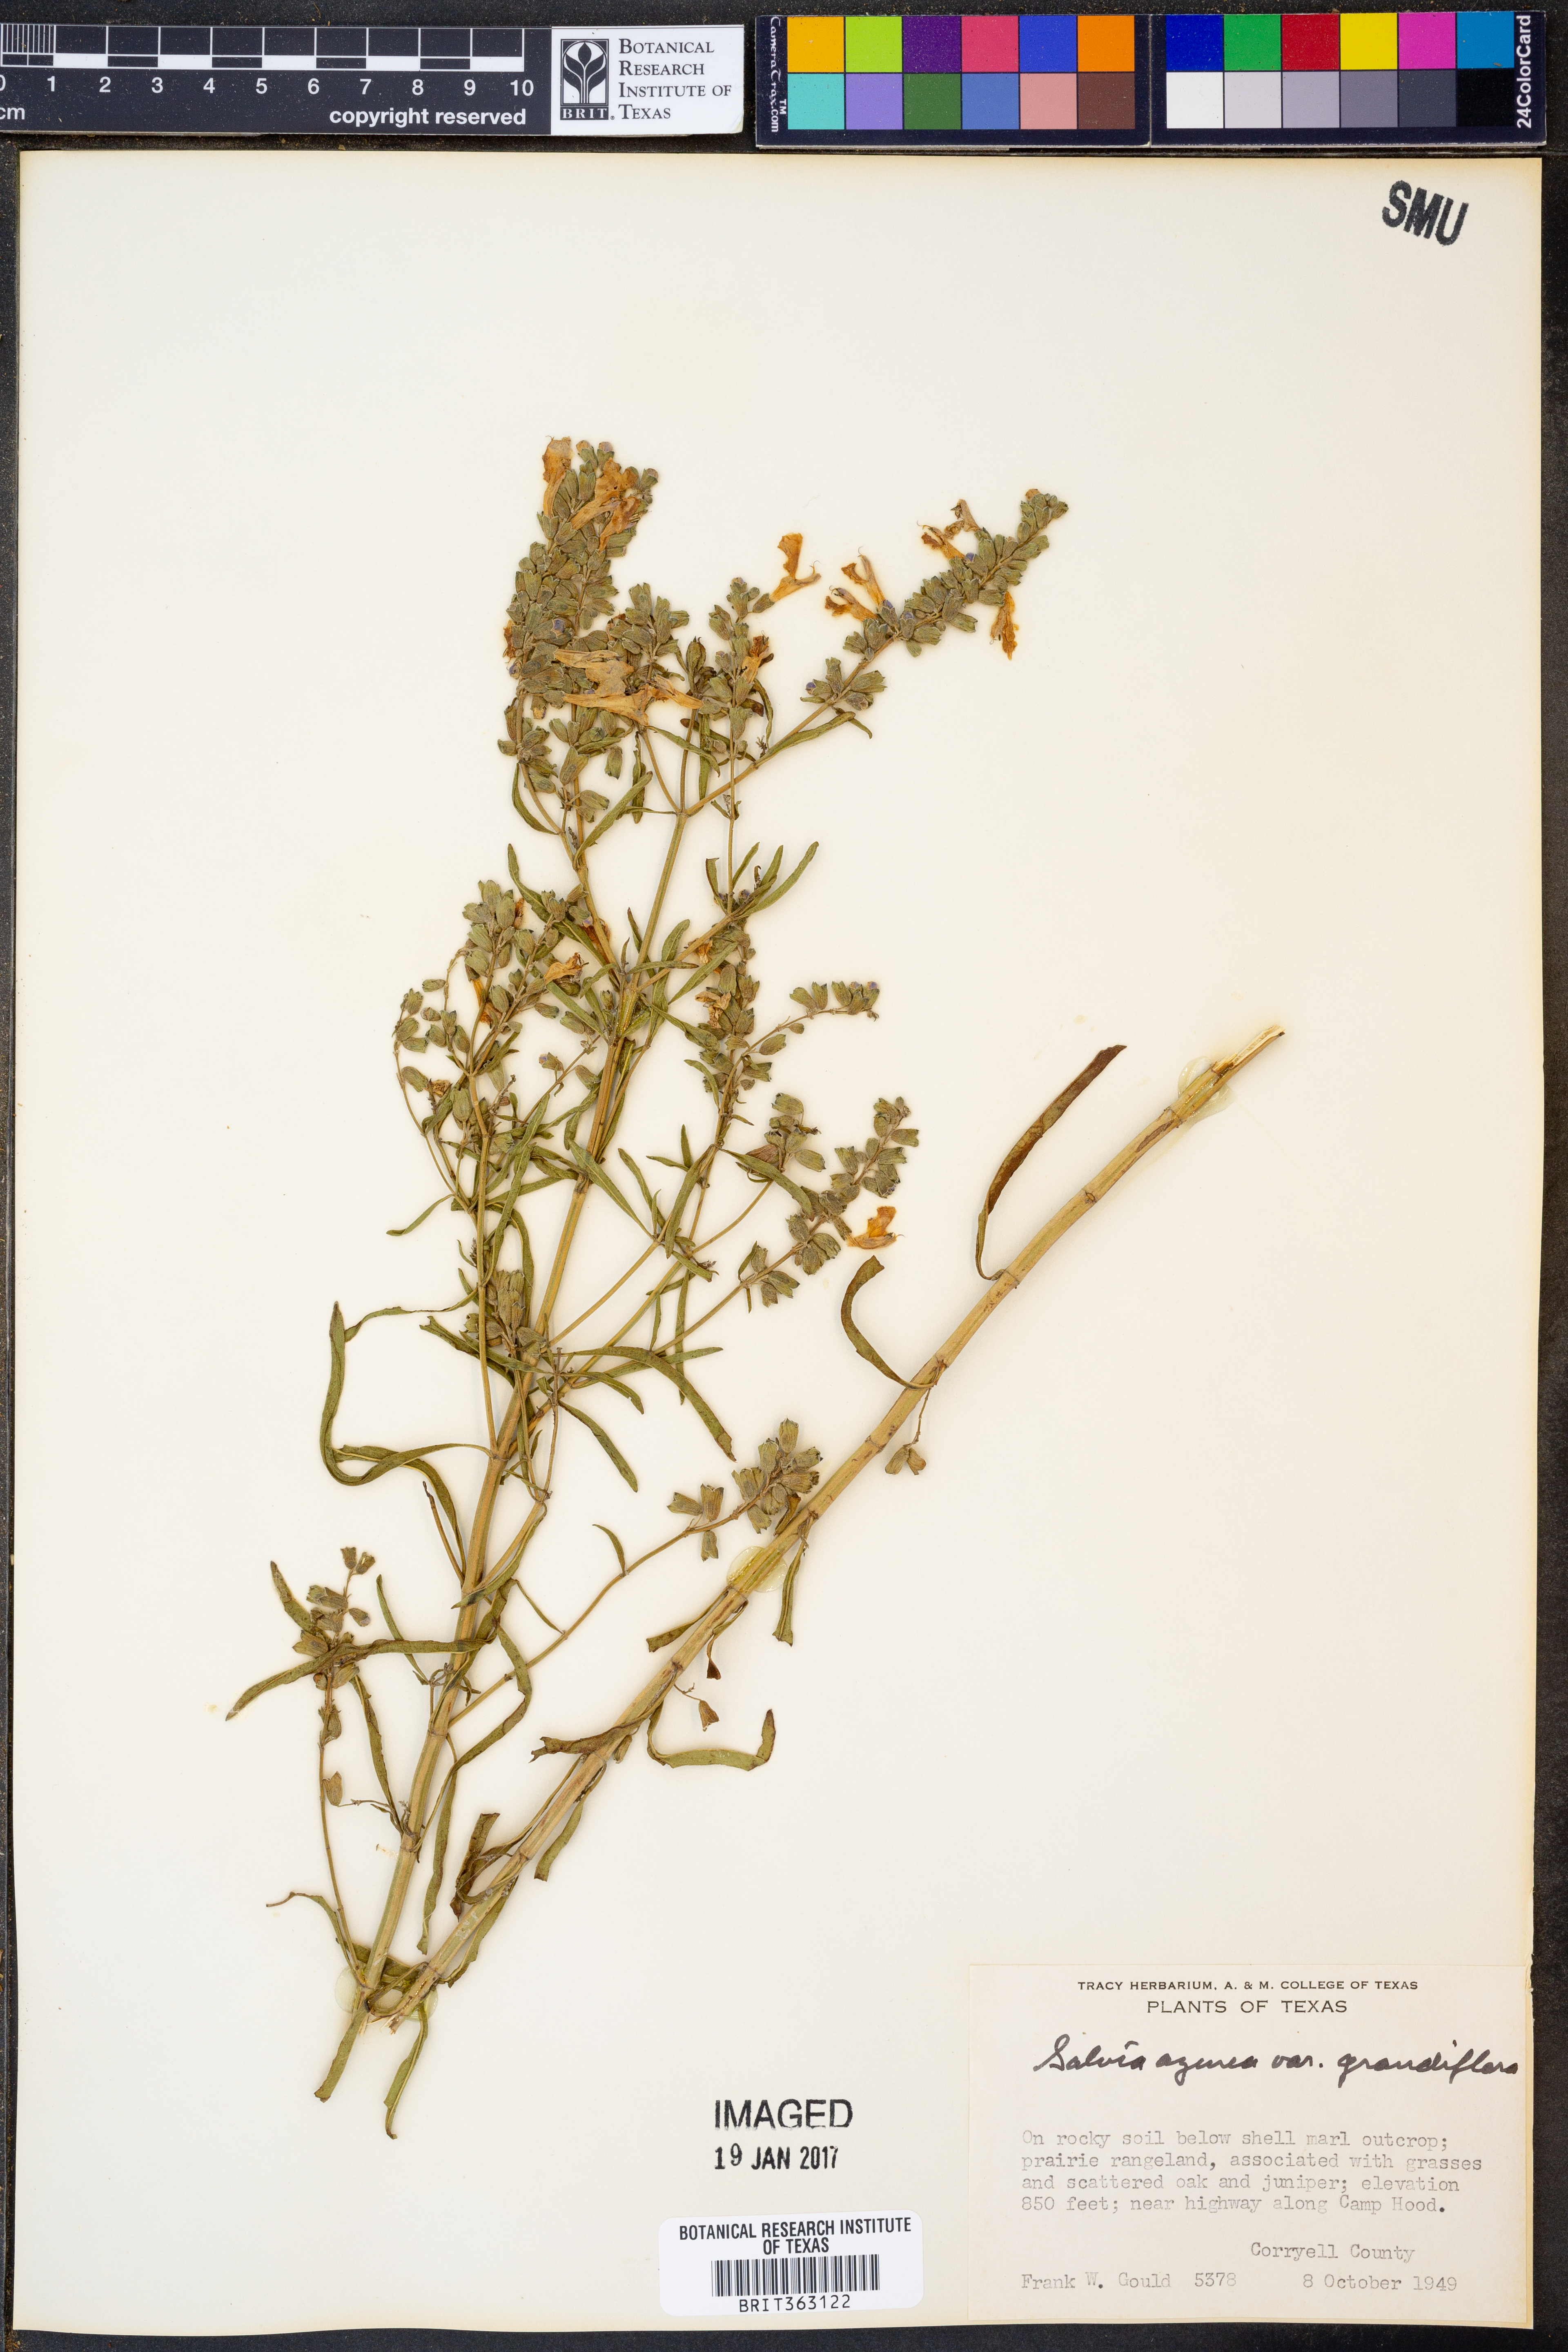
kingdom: Plantae
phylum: Tracheophyta
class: Magnoliopsida
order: Lamiales
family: Lamiaceae
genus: Salvia
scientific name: Salvia azurea
